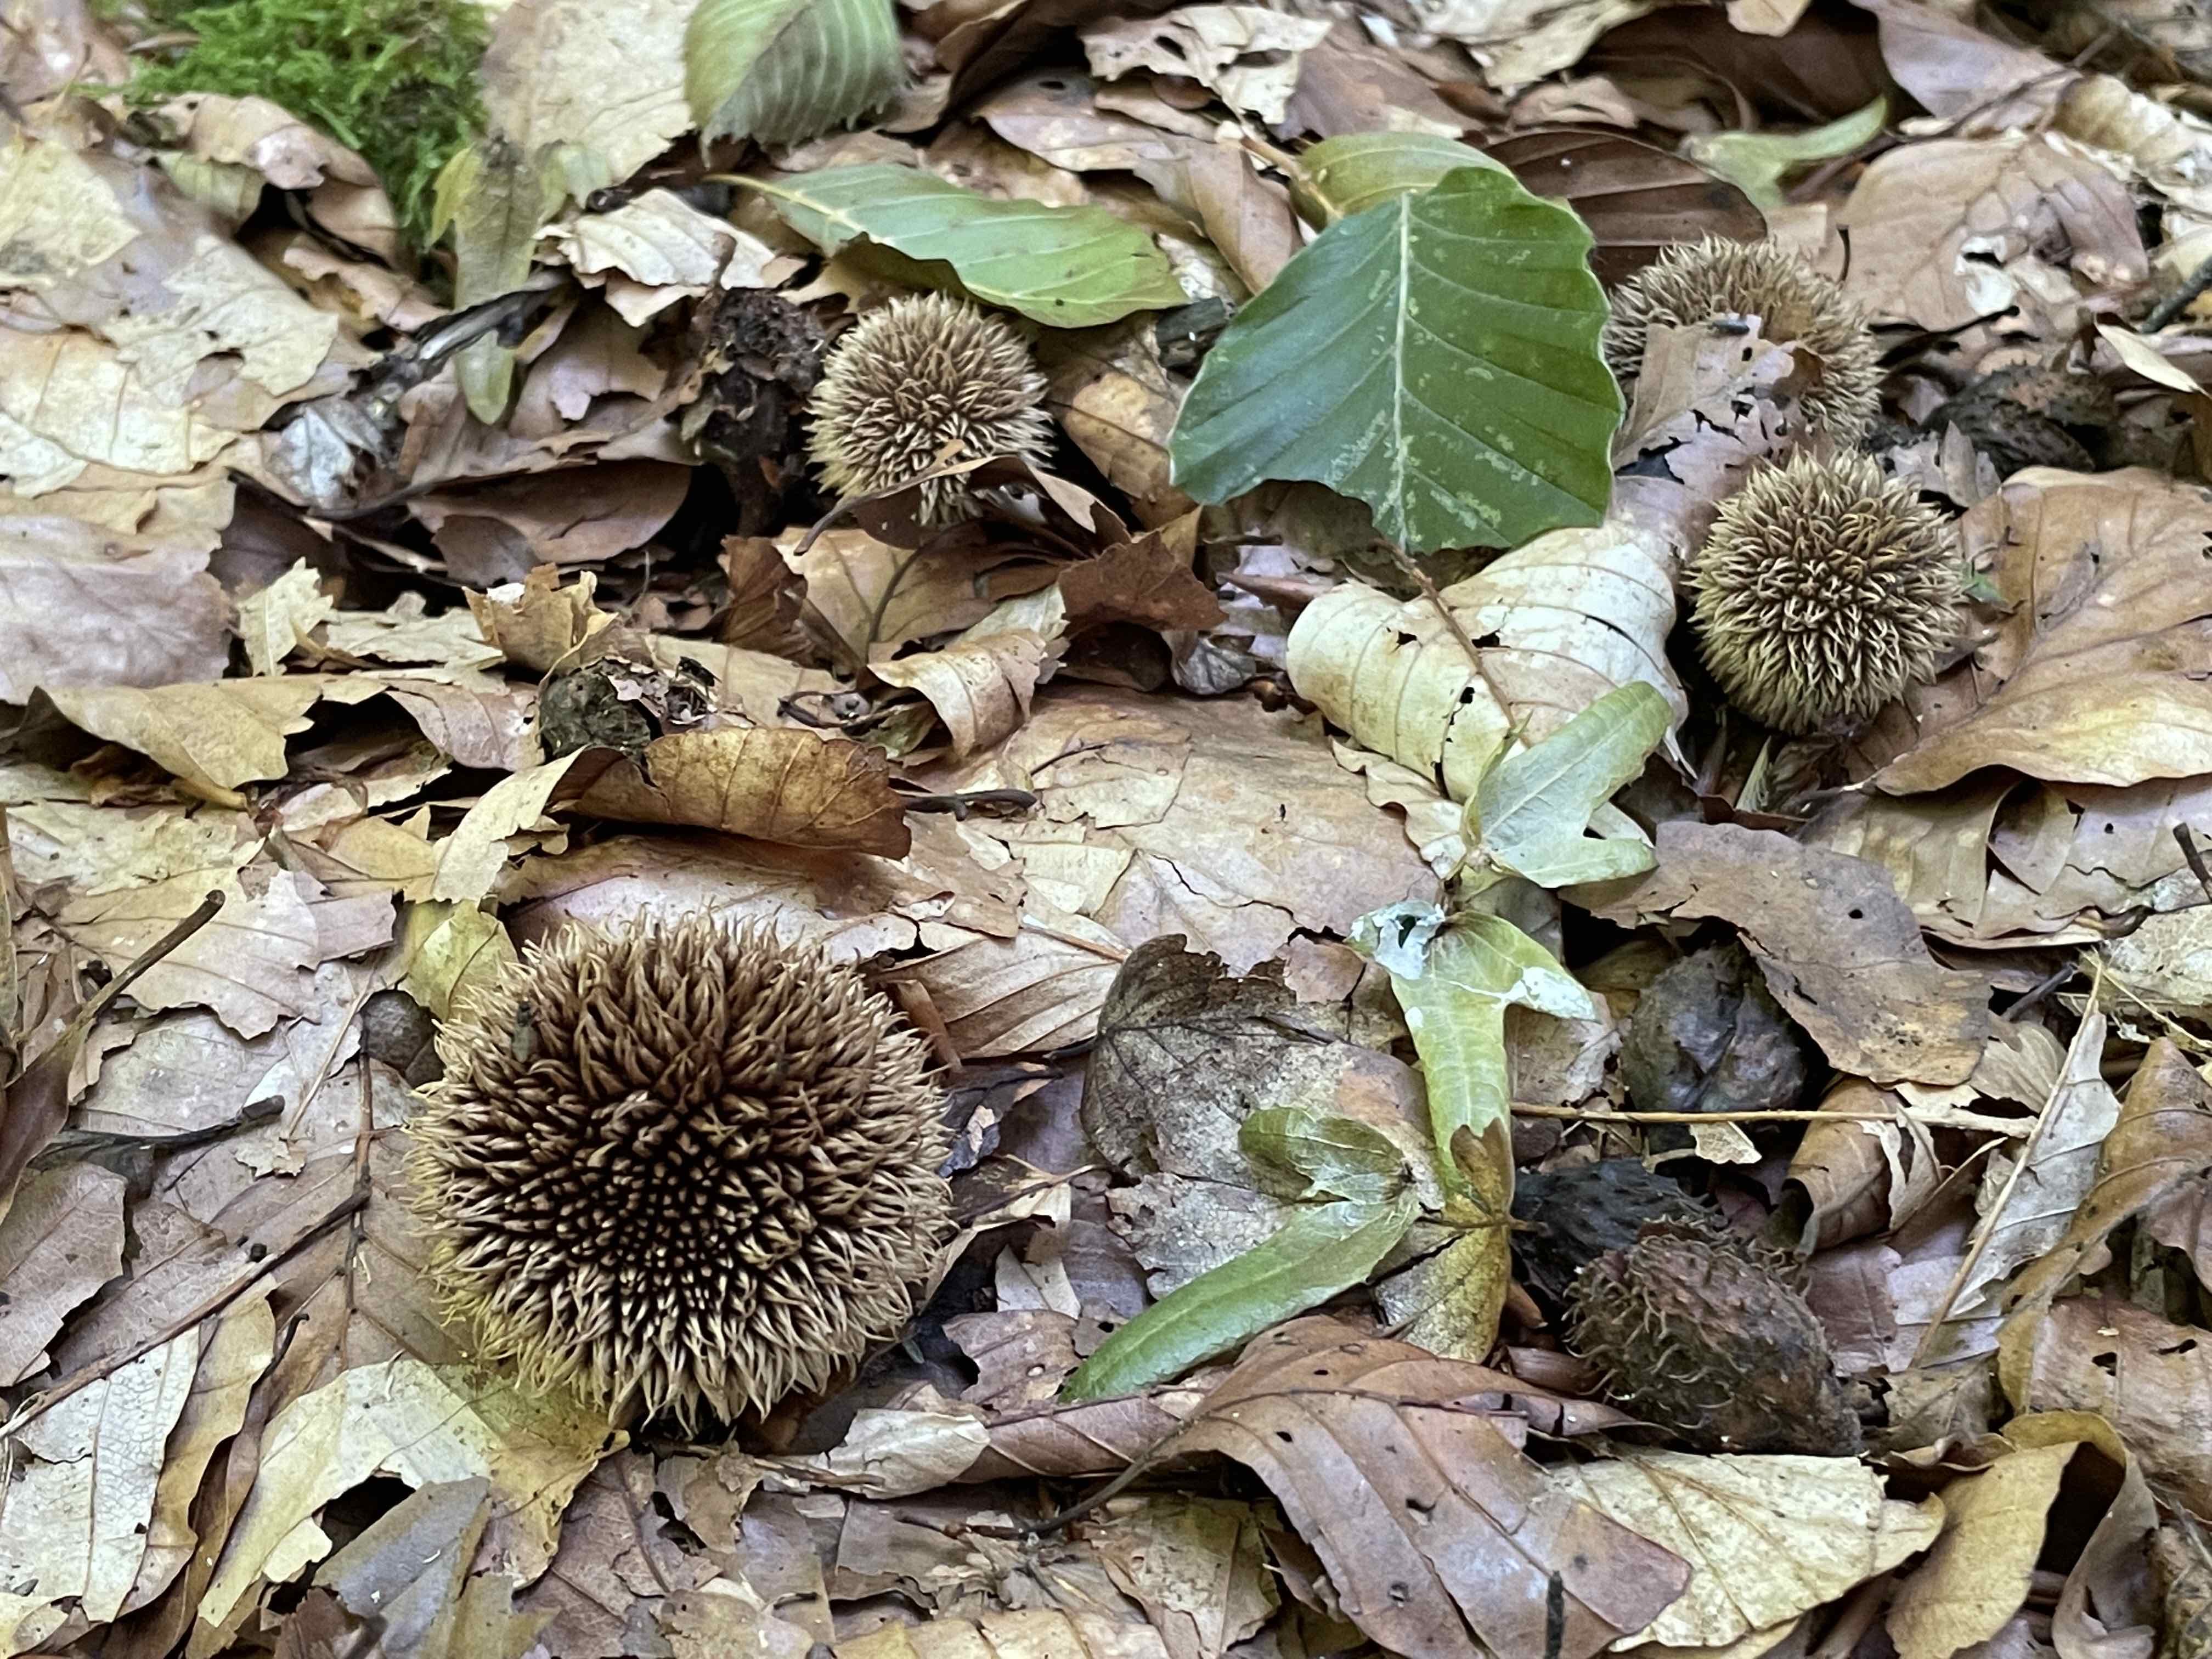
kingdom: Fungi
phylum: Basidiomycota
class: Agaricomycetes
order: Agaricales
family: Lycoperdaceae
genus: Lycoperdon
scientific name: Lycoperdon echinatum
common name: pindsvine-støvbold
